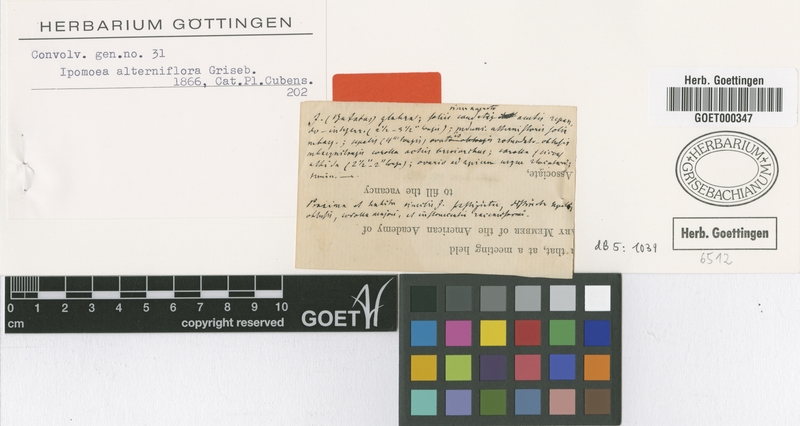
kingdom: Plantae
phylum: Tracheophyta
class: Magnoliopsida
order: Solanales
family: Convolvulaceae
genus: Ipomoea
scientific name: Ipomoea alterniflora
